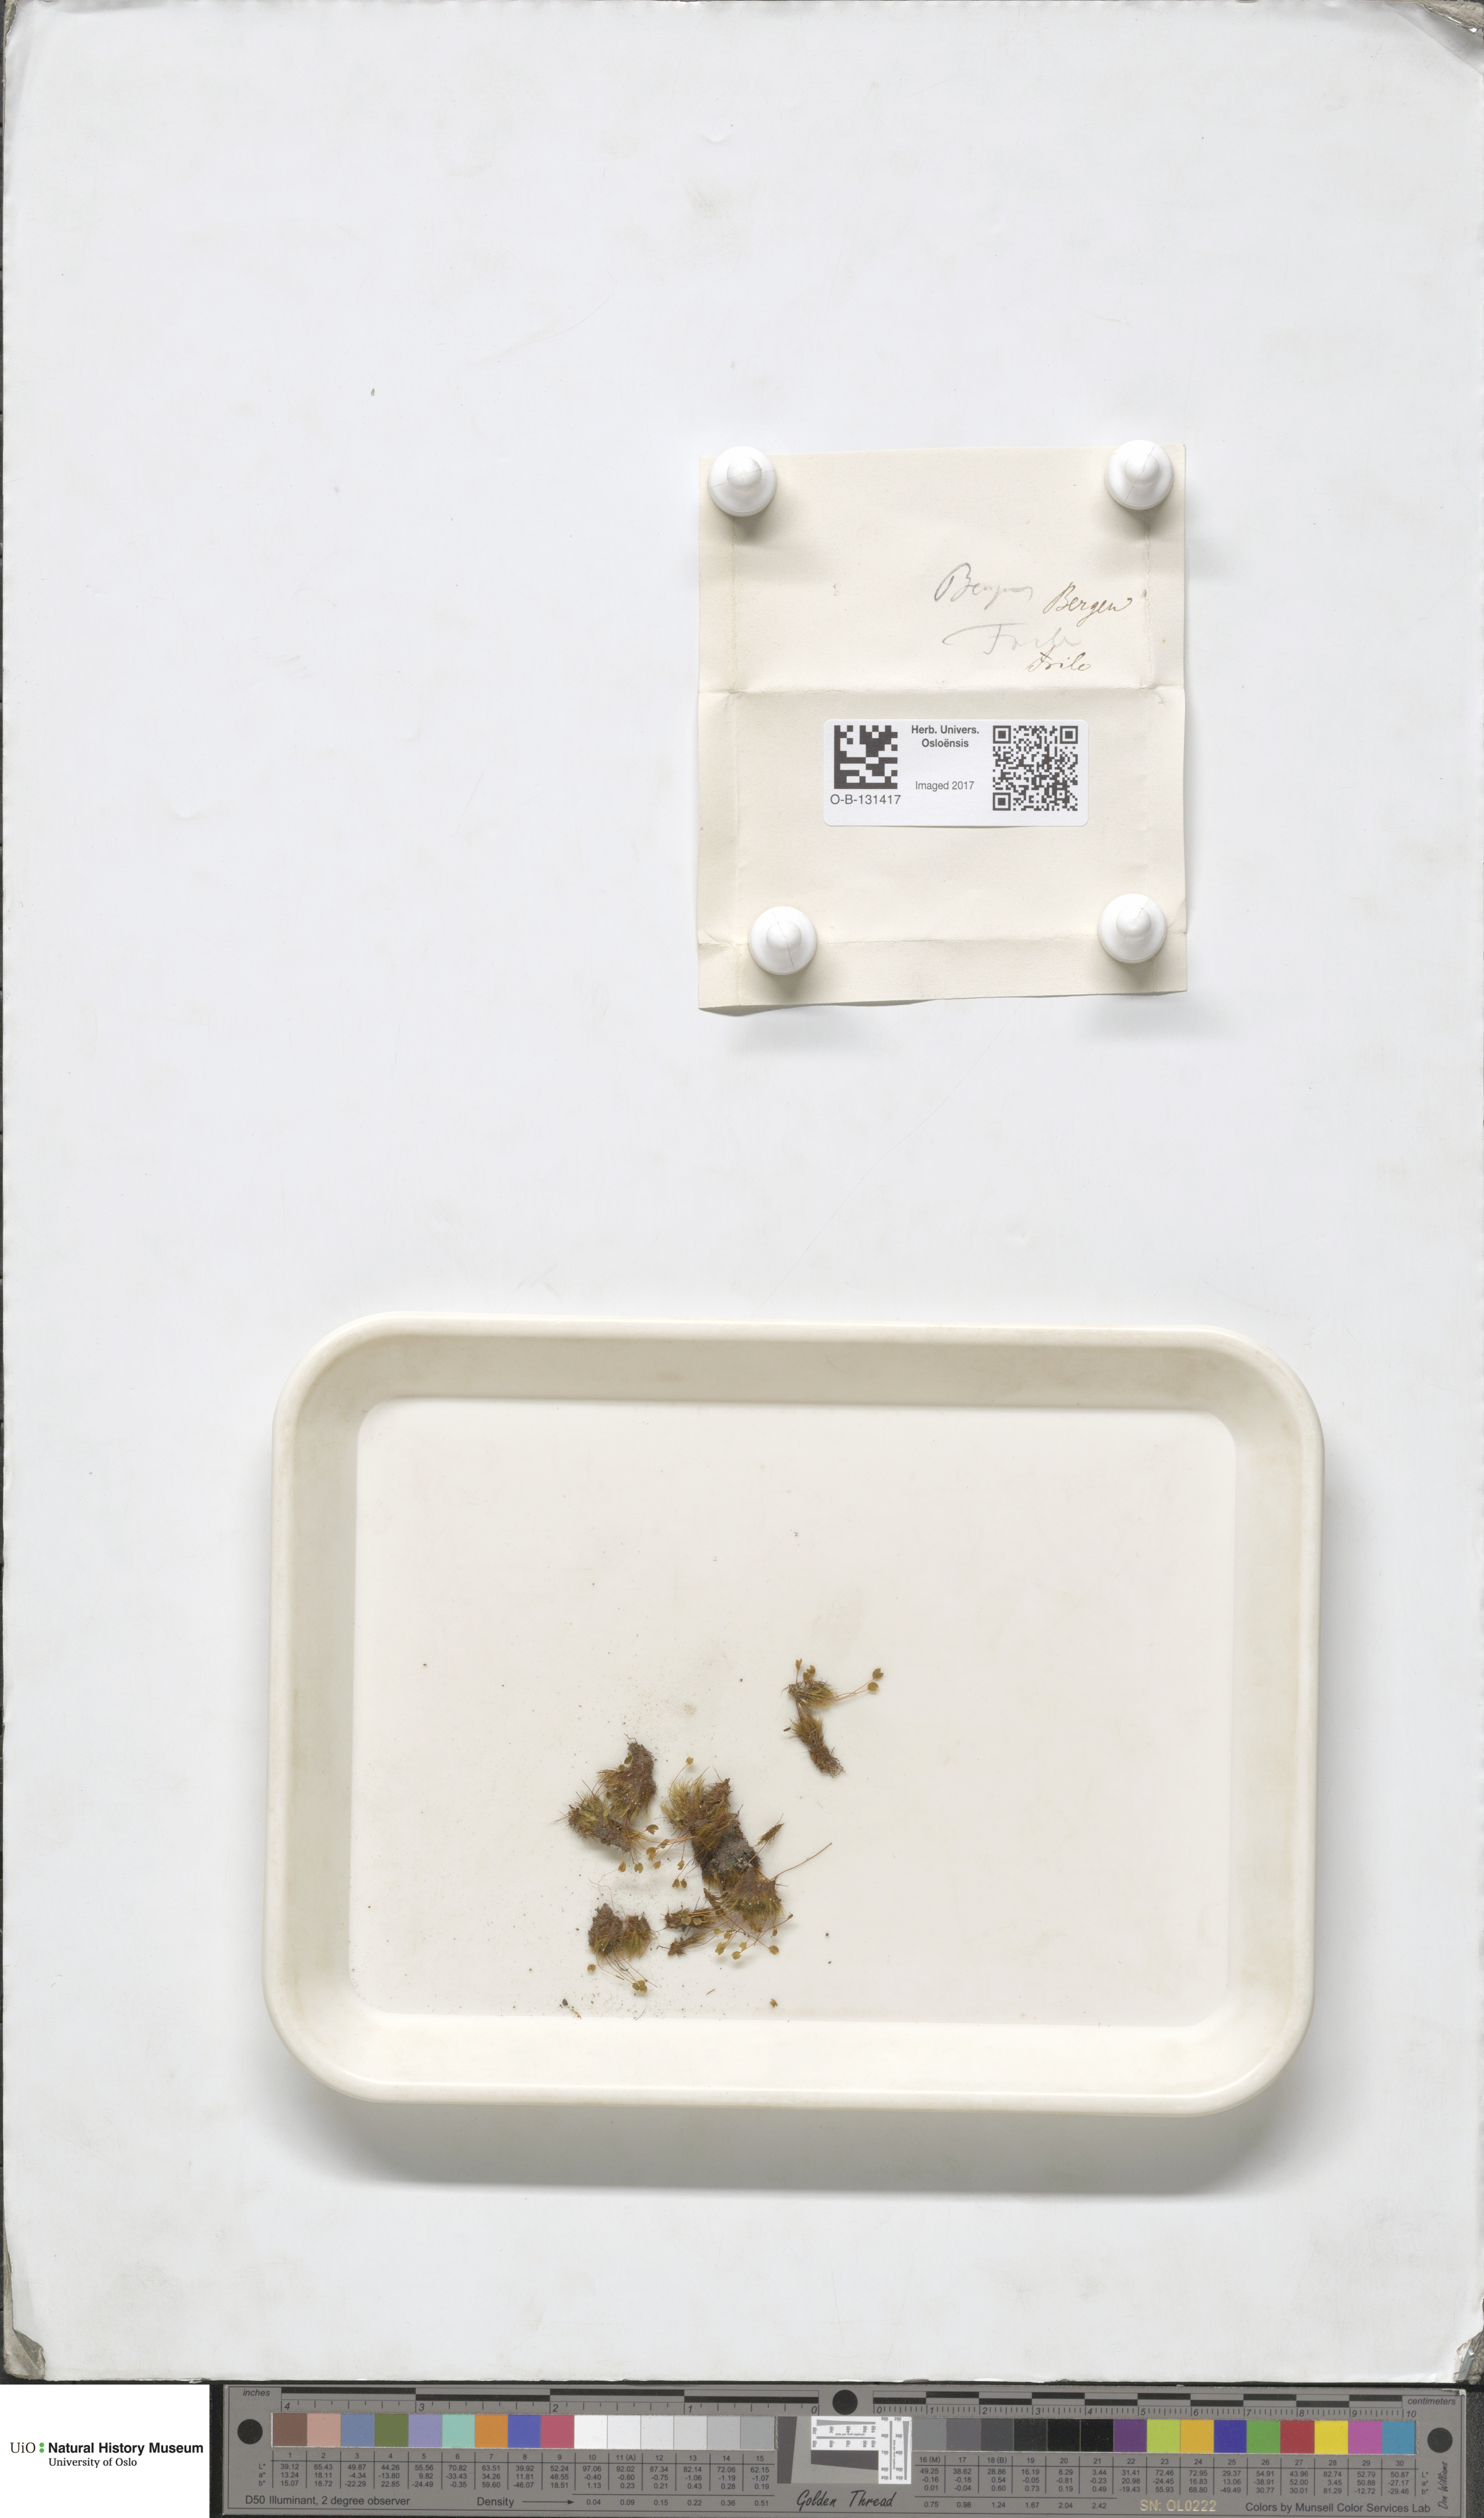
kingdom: Plantae
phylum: Bryophyta
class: Bryopsida
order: Grimmiales
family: Seligeriaceae
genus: Blindia
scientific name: Blindia acuta
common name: Sharp-leaved blind's moss
